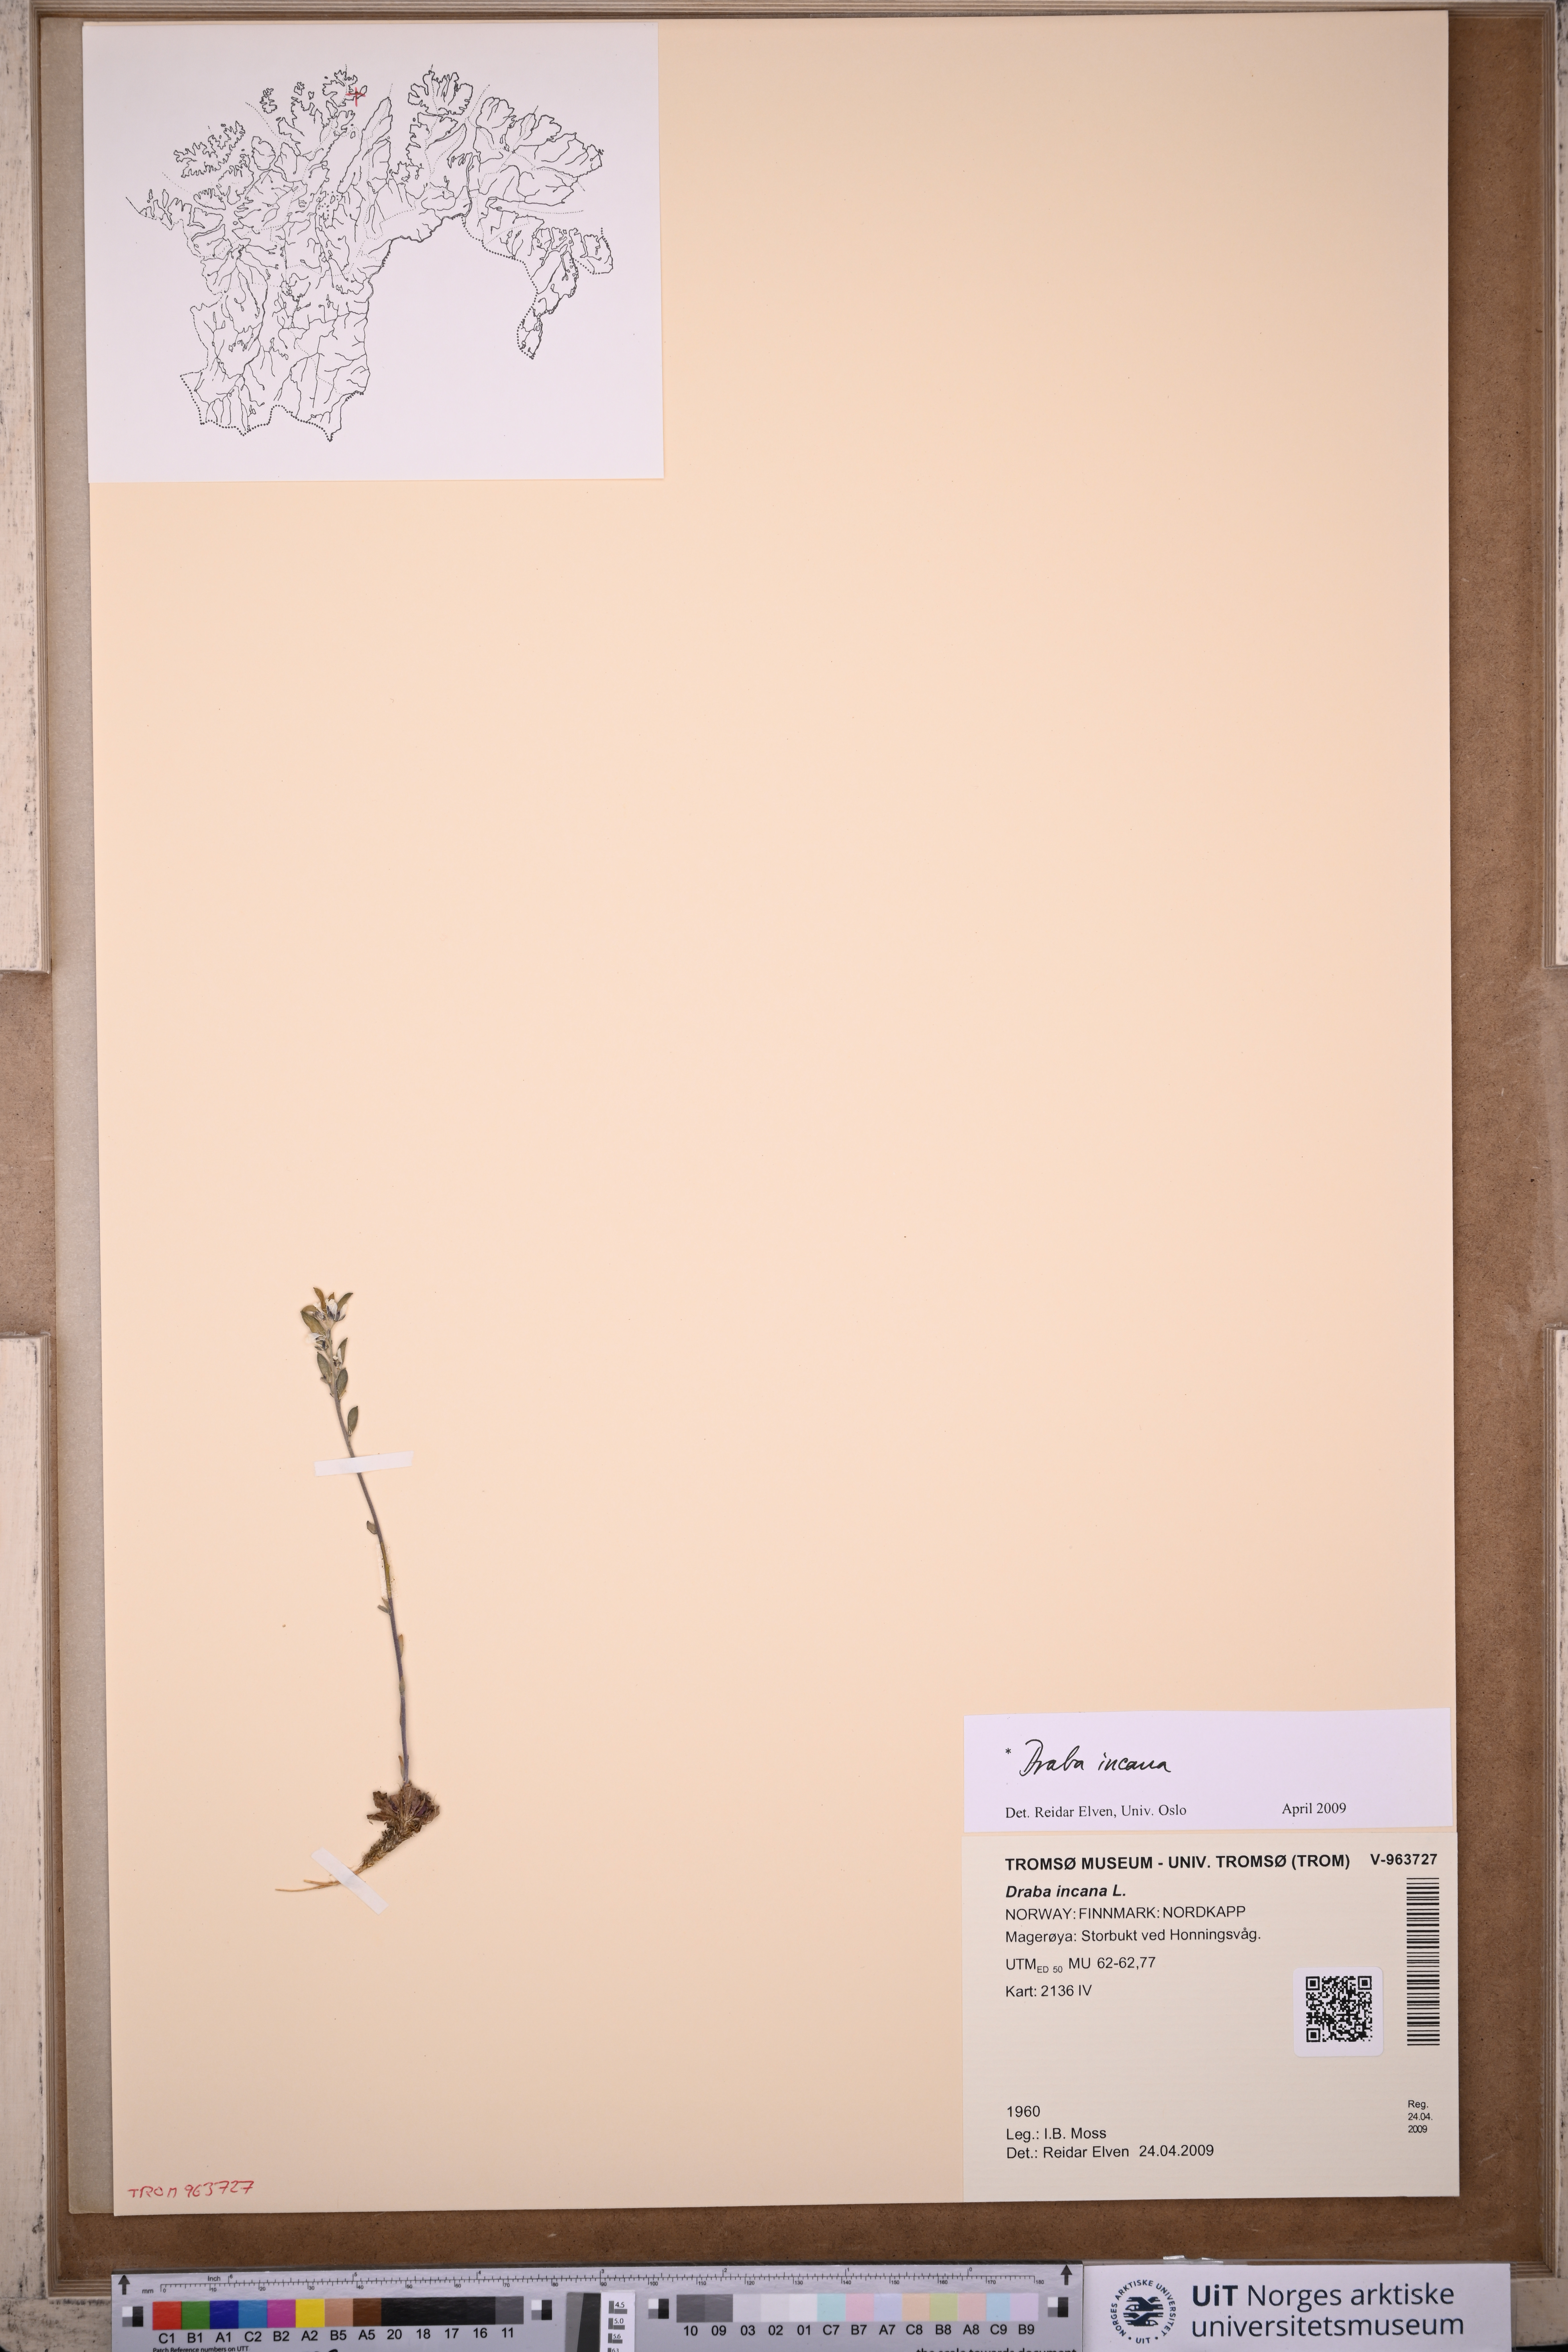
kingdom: Plantae
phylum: Tracheophyta
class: Magnoliopsida
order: Brassicales
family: Brassicaceae
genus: Draba
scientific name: Draba incana
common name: Hoary whitlow-grass
